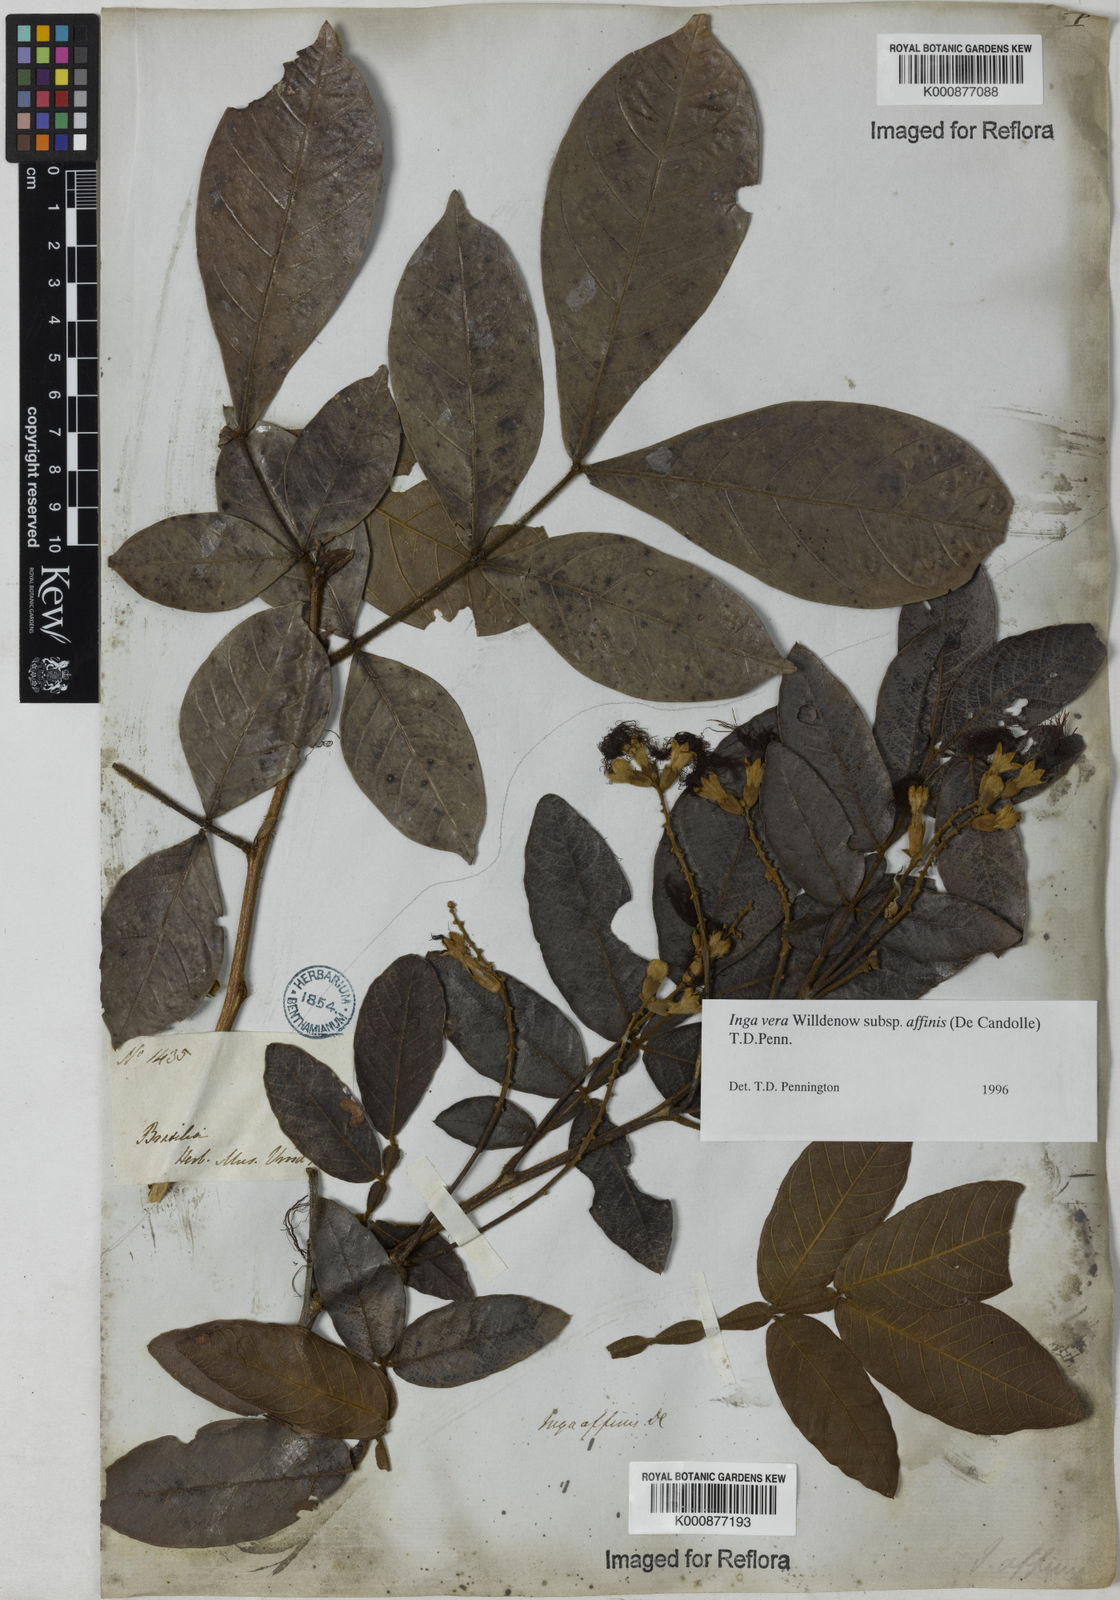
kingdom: Plantae
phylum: Tracheophyta
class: Magnoliopsida
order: Fabales
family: Fabaceae
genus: Inga
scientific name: Inga affinis
